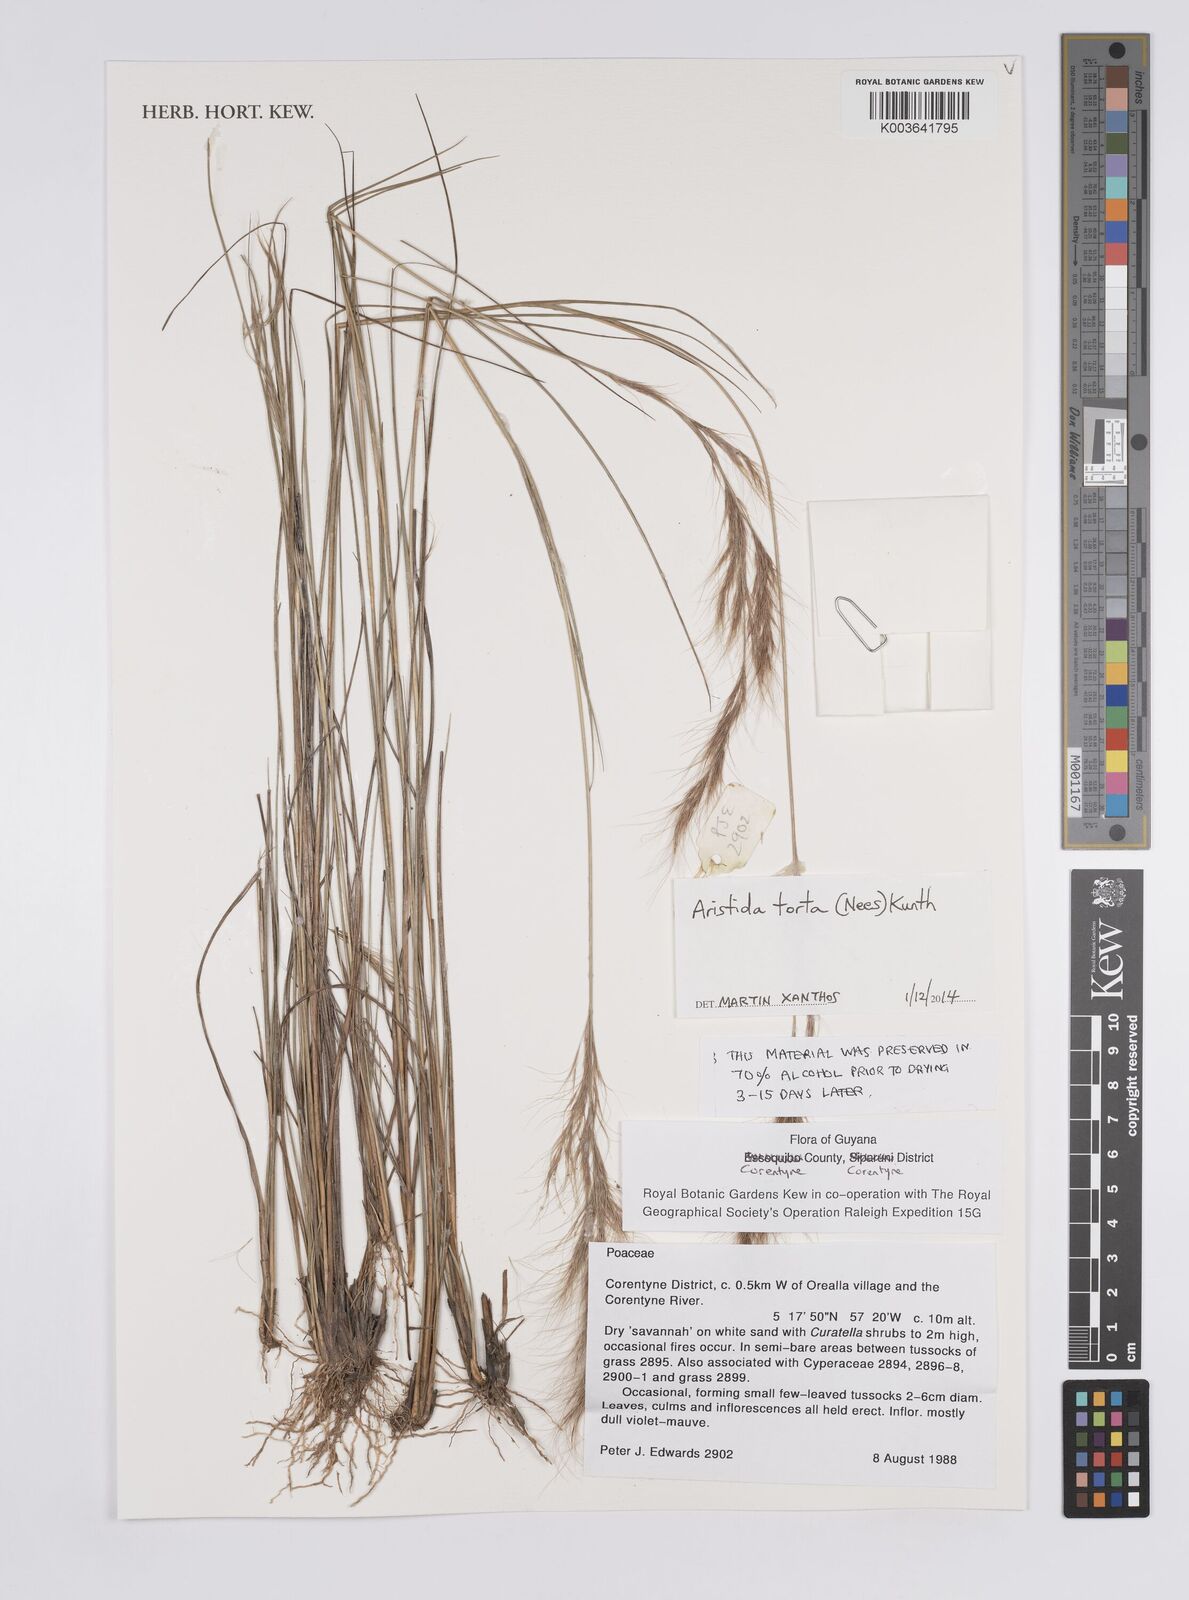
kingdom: Plantae
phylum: Tracheophyta
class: Liliopsida
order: Poales
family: Poaceae
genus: Aristida
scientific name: Aristida torta
